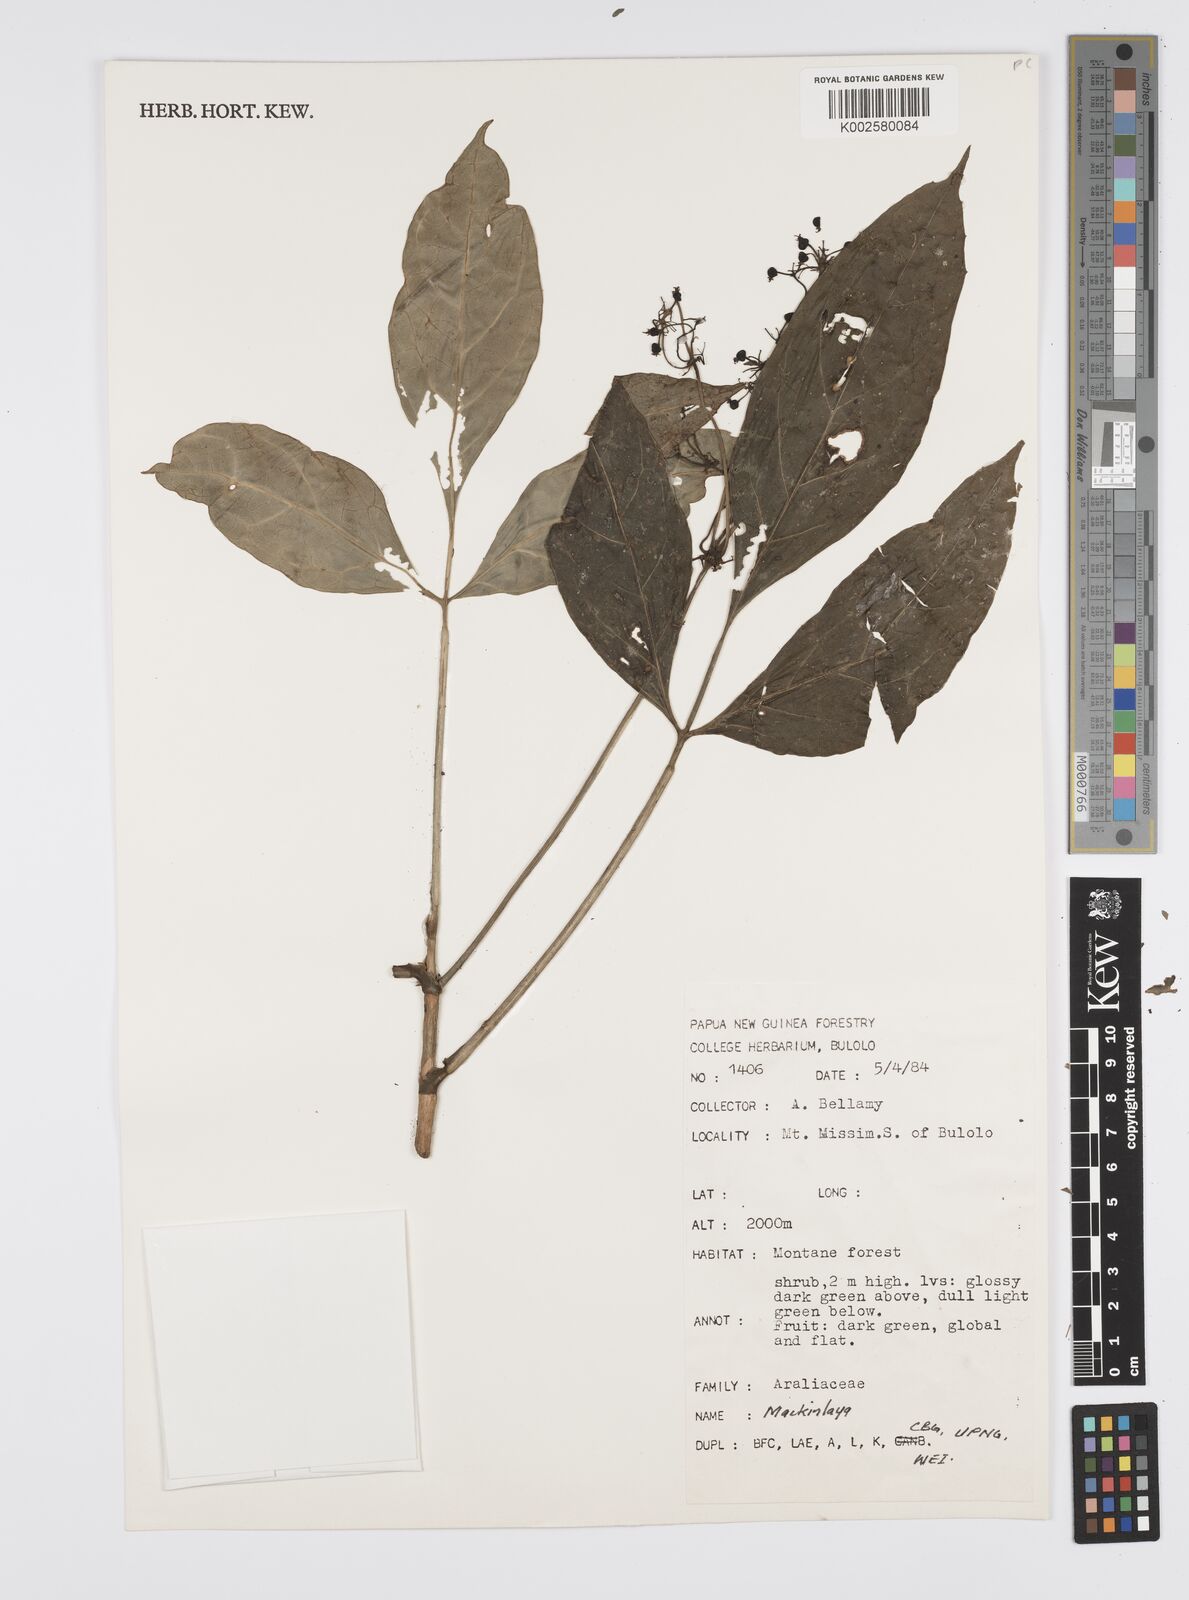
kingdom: Plantae
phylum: Tracheophyta
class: Magnoliopsida
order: Apiales
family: Apiaceae
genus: Mackinlaya
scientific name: Mackinlaya schlechteri
